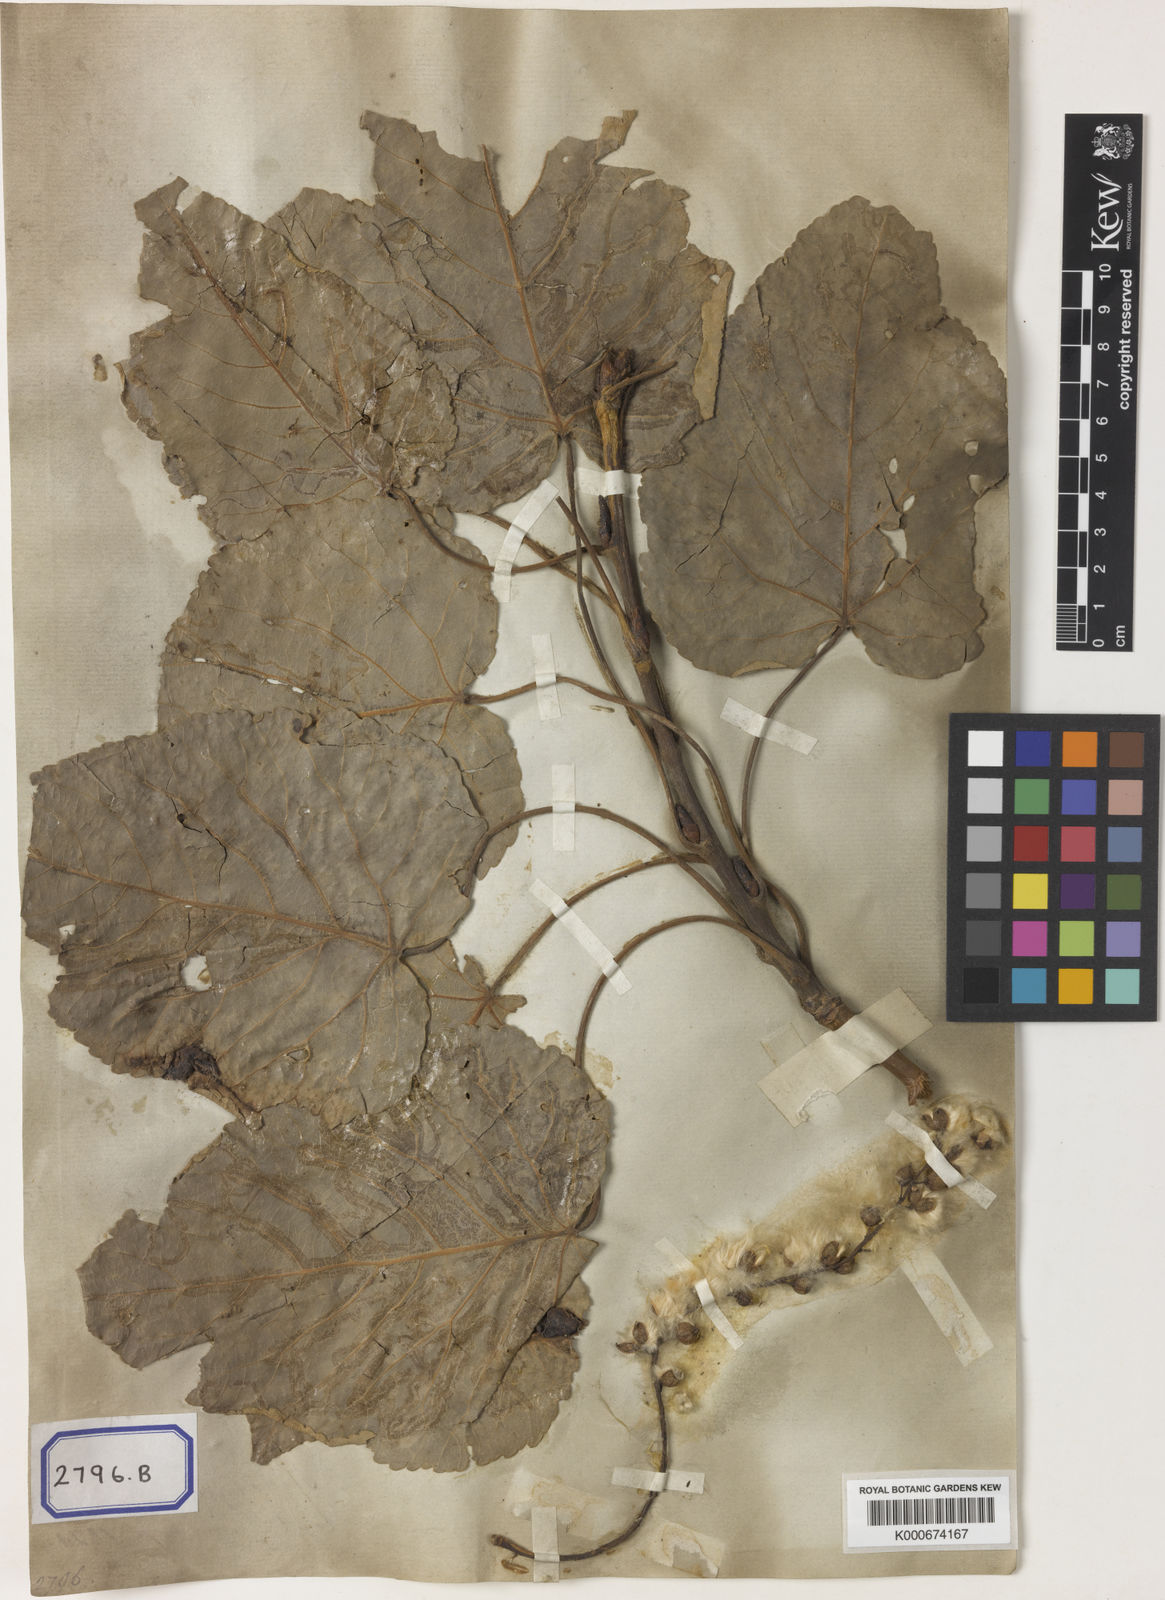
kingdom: Plantae
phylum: Tracheophyta
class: Magnoliopsida
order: Malpighiales
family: Salicaceae
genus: Populus
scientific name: Populus
